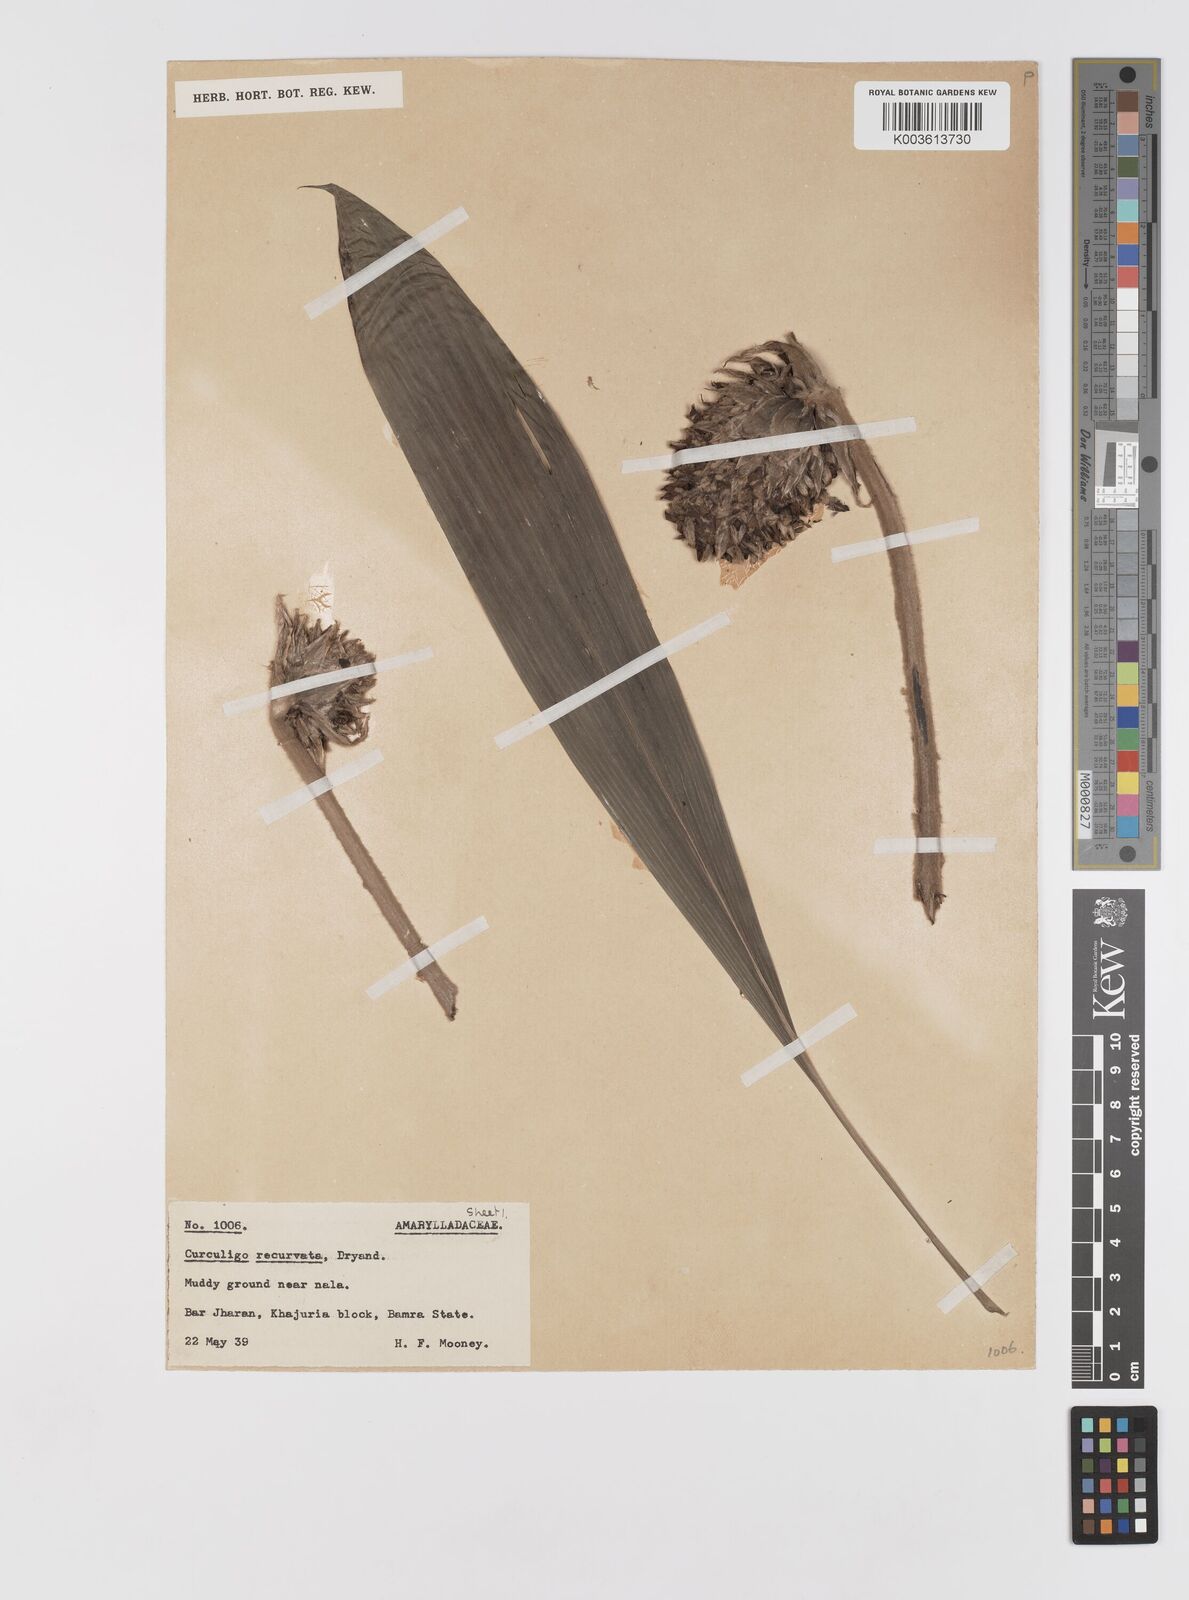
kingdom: Plantae
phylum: Tracheophyta
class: Liliopsida
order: Asparagales
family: Hypoxidaceae
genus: Curculigo
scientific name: Curculigo capitulata
